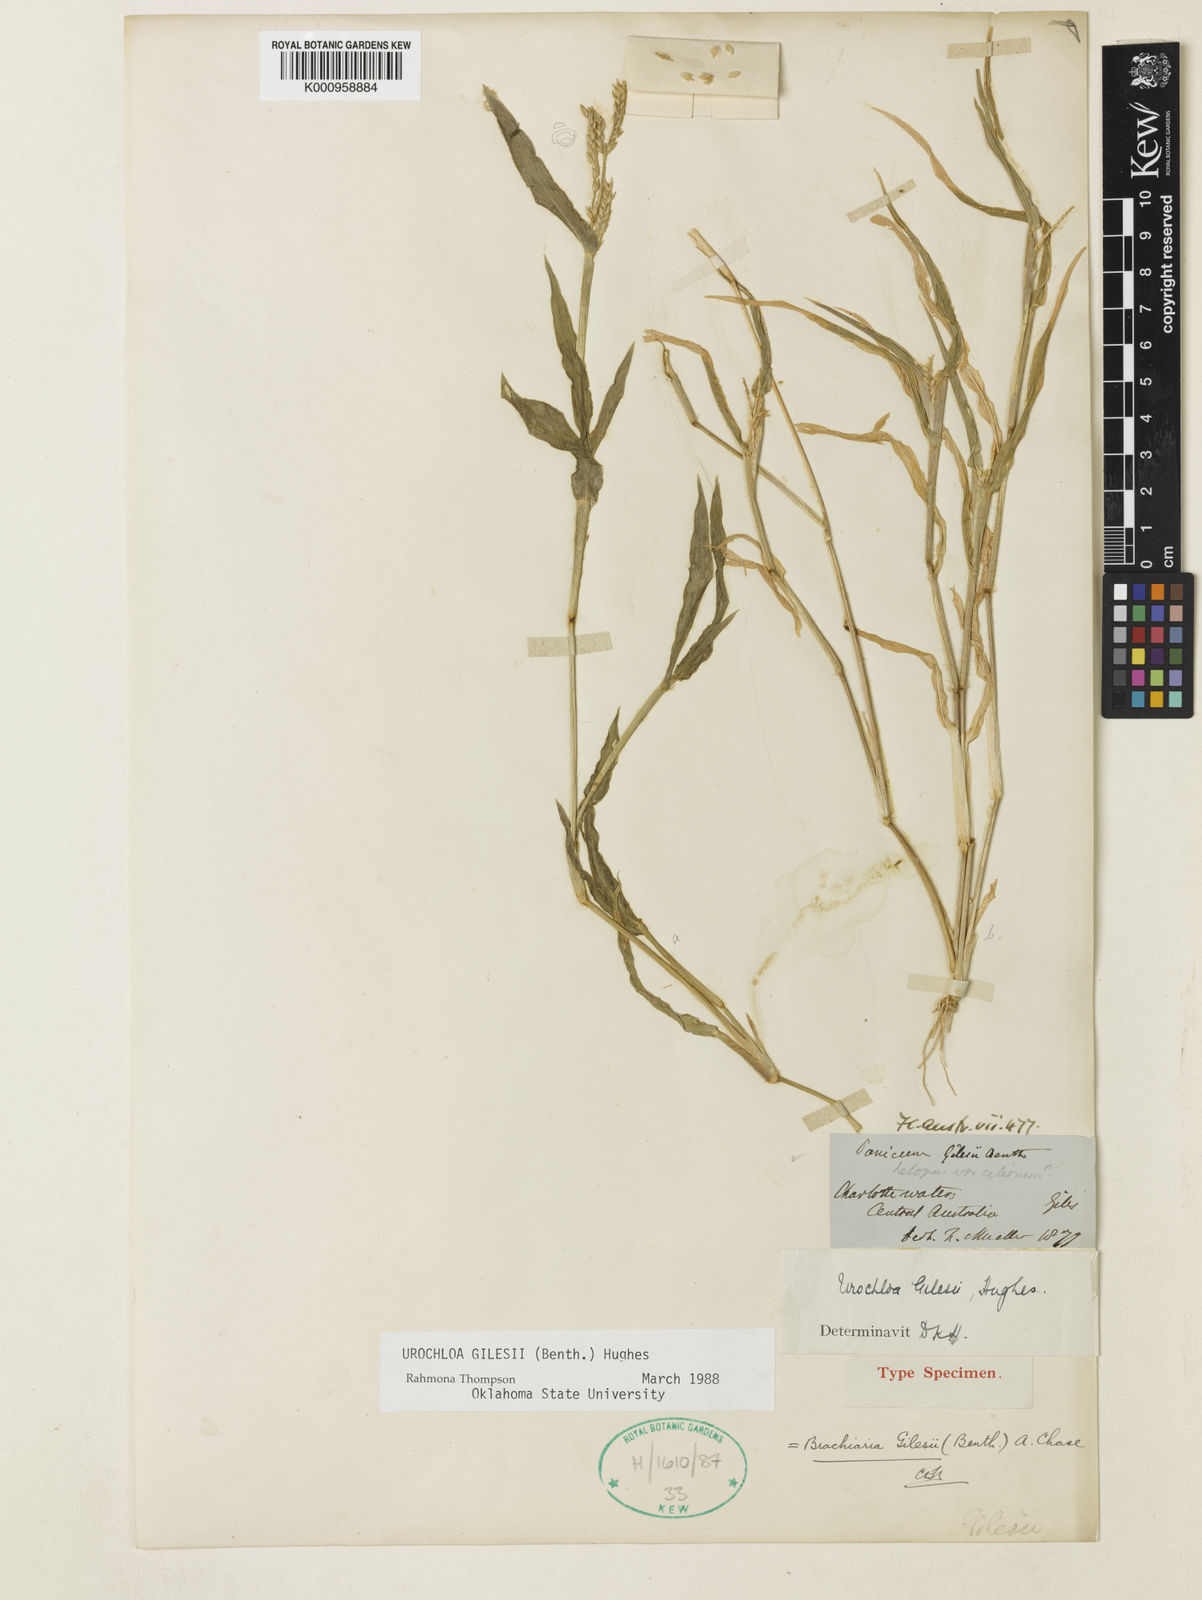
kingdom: Plantae
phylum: Tracheophyta
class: Liliopsida
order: Poales
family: Poaceae
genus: Urochloa
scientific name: Urochloa gilesii
